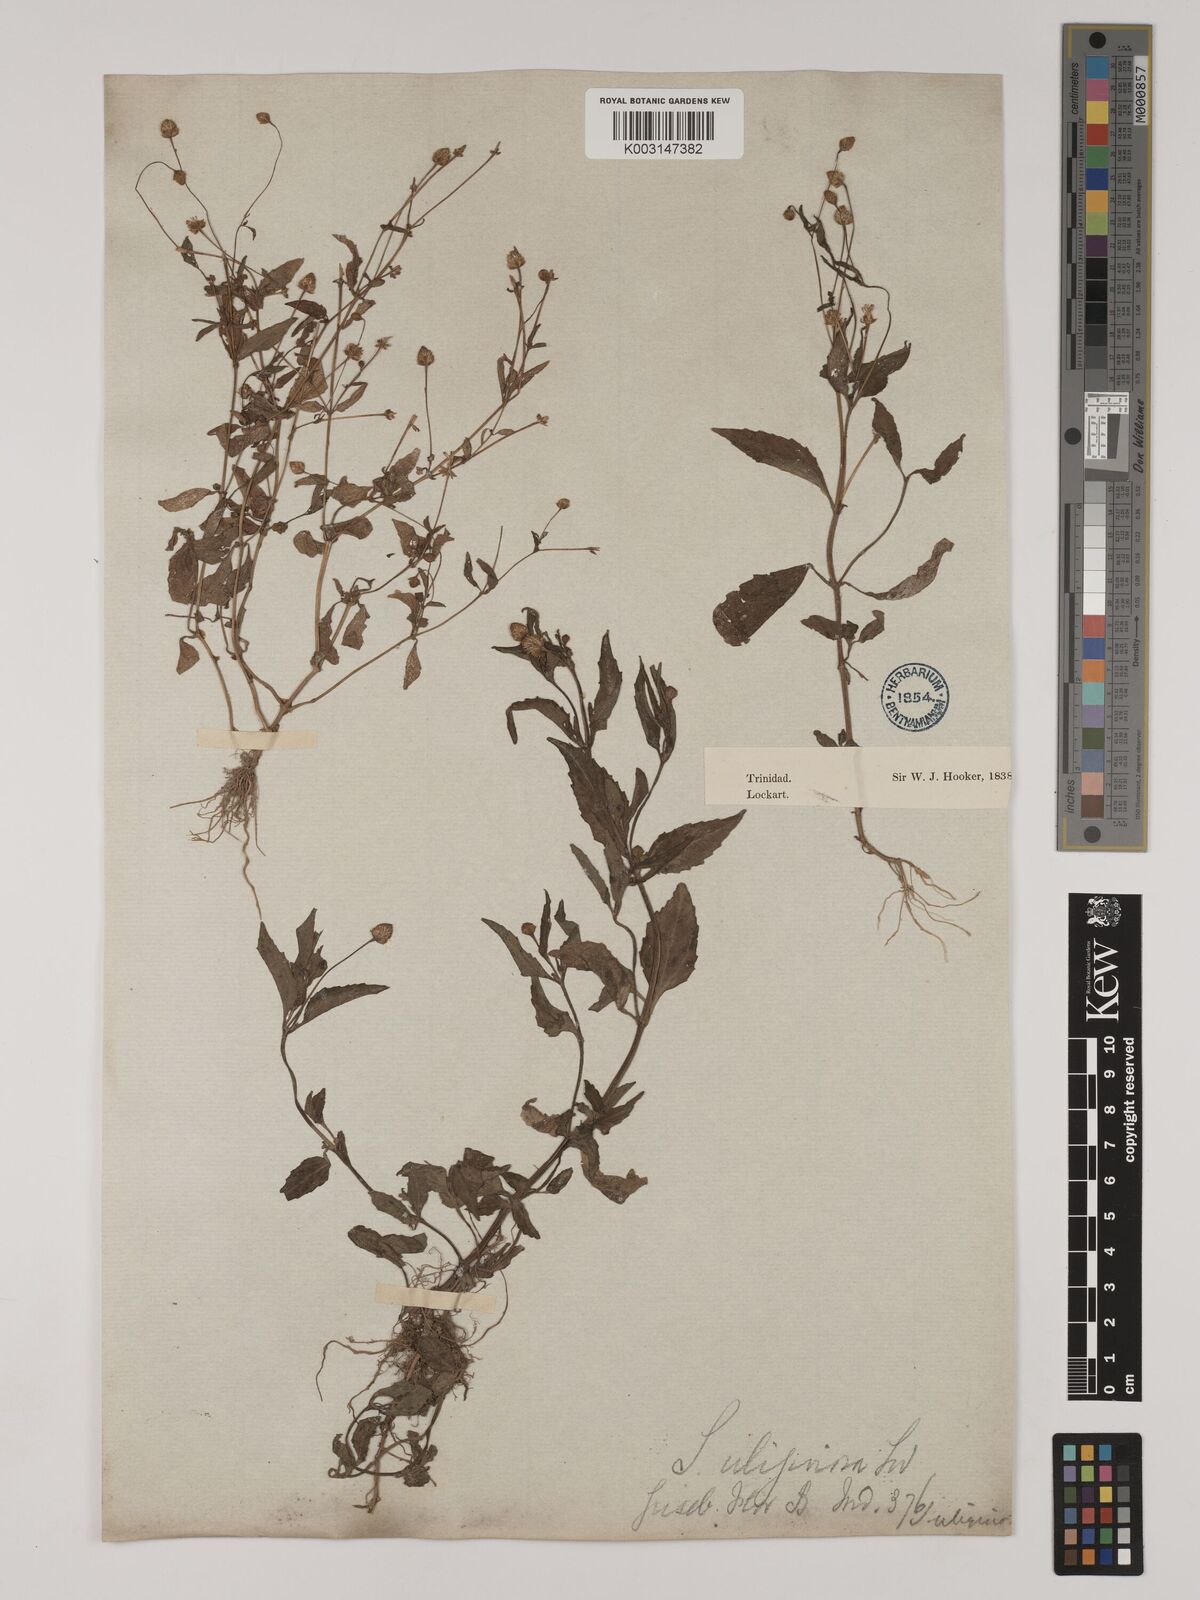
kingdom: Plantae
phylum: Tracheophyta
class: Magnoliopsida
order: Asterales
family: Asteraceae
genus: Acmella
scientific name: Acmella uliginosa
